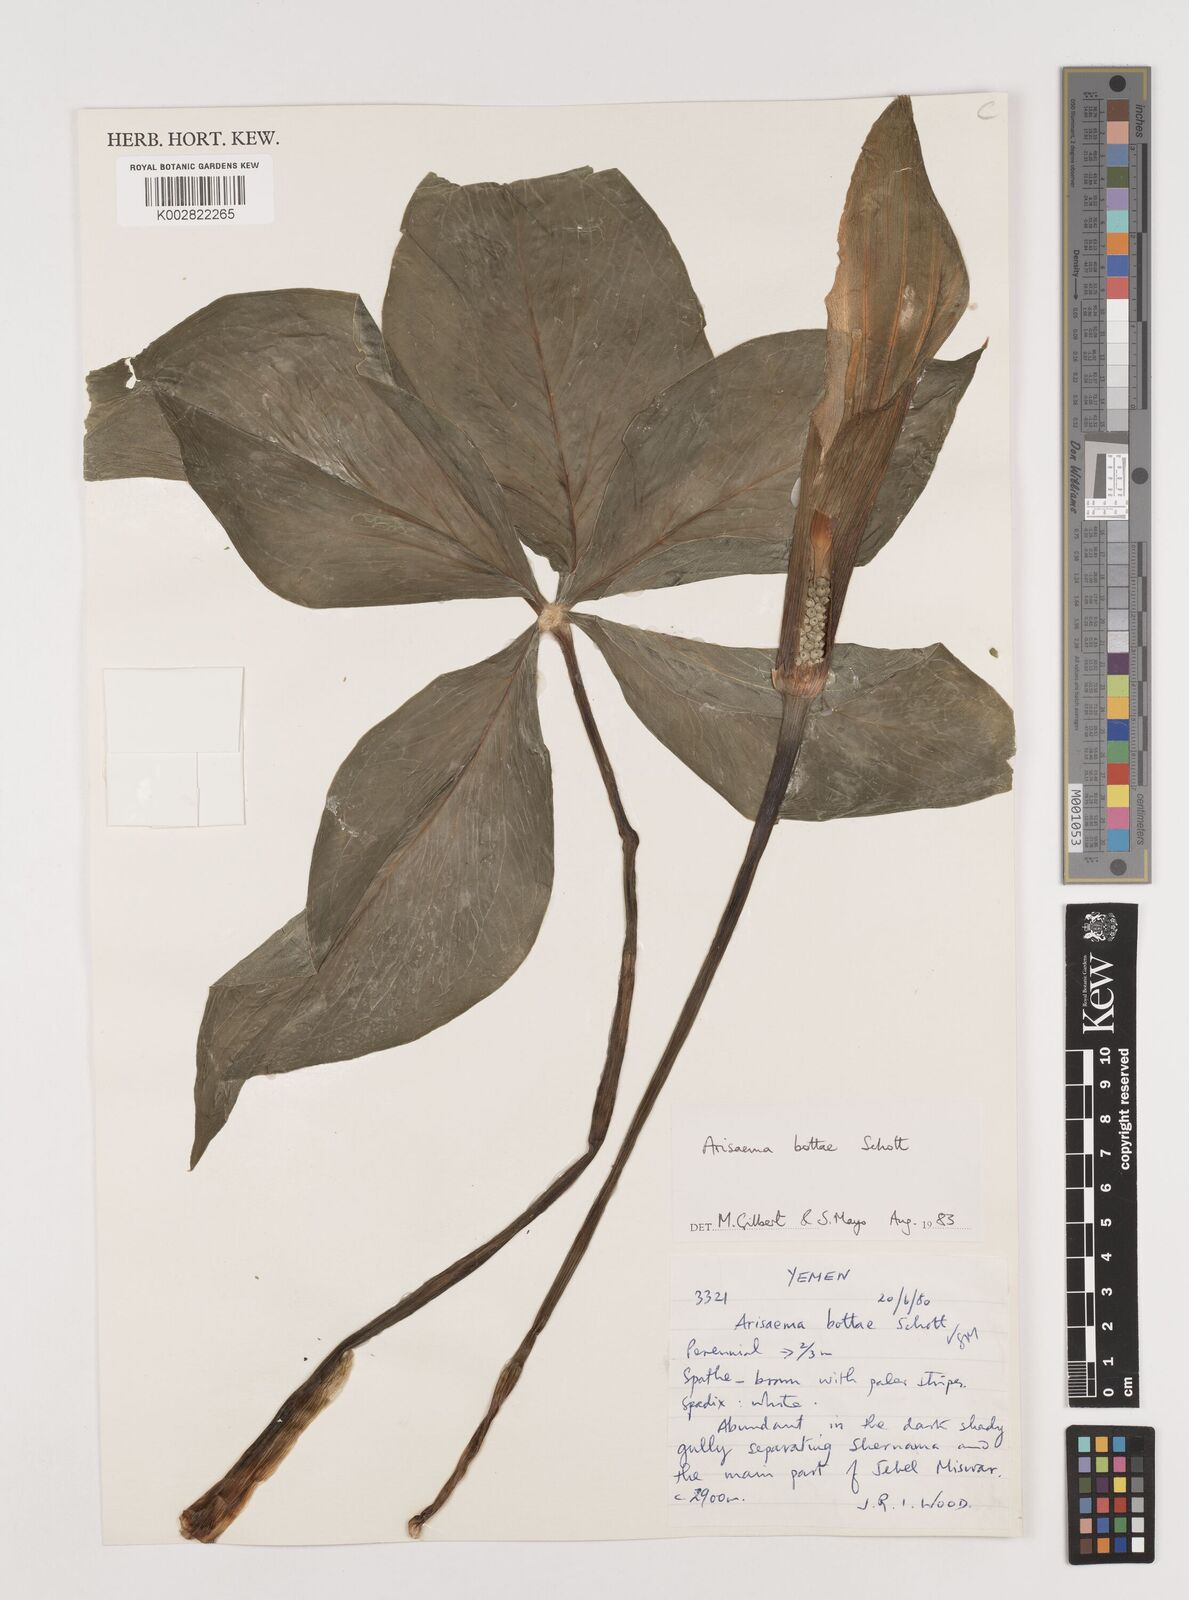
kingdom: Plantae
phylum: Tracheophyta
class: Liliopsida
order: Alismatales
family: Araceae
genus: Arisaema
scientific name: Arisaema bottae
